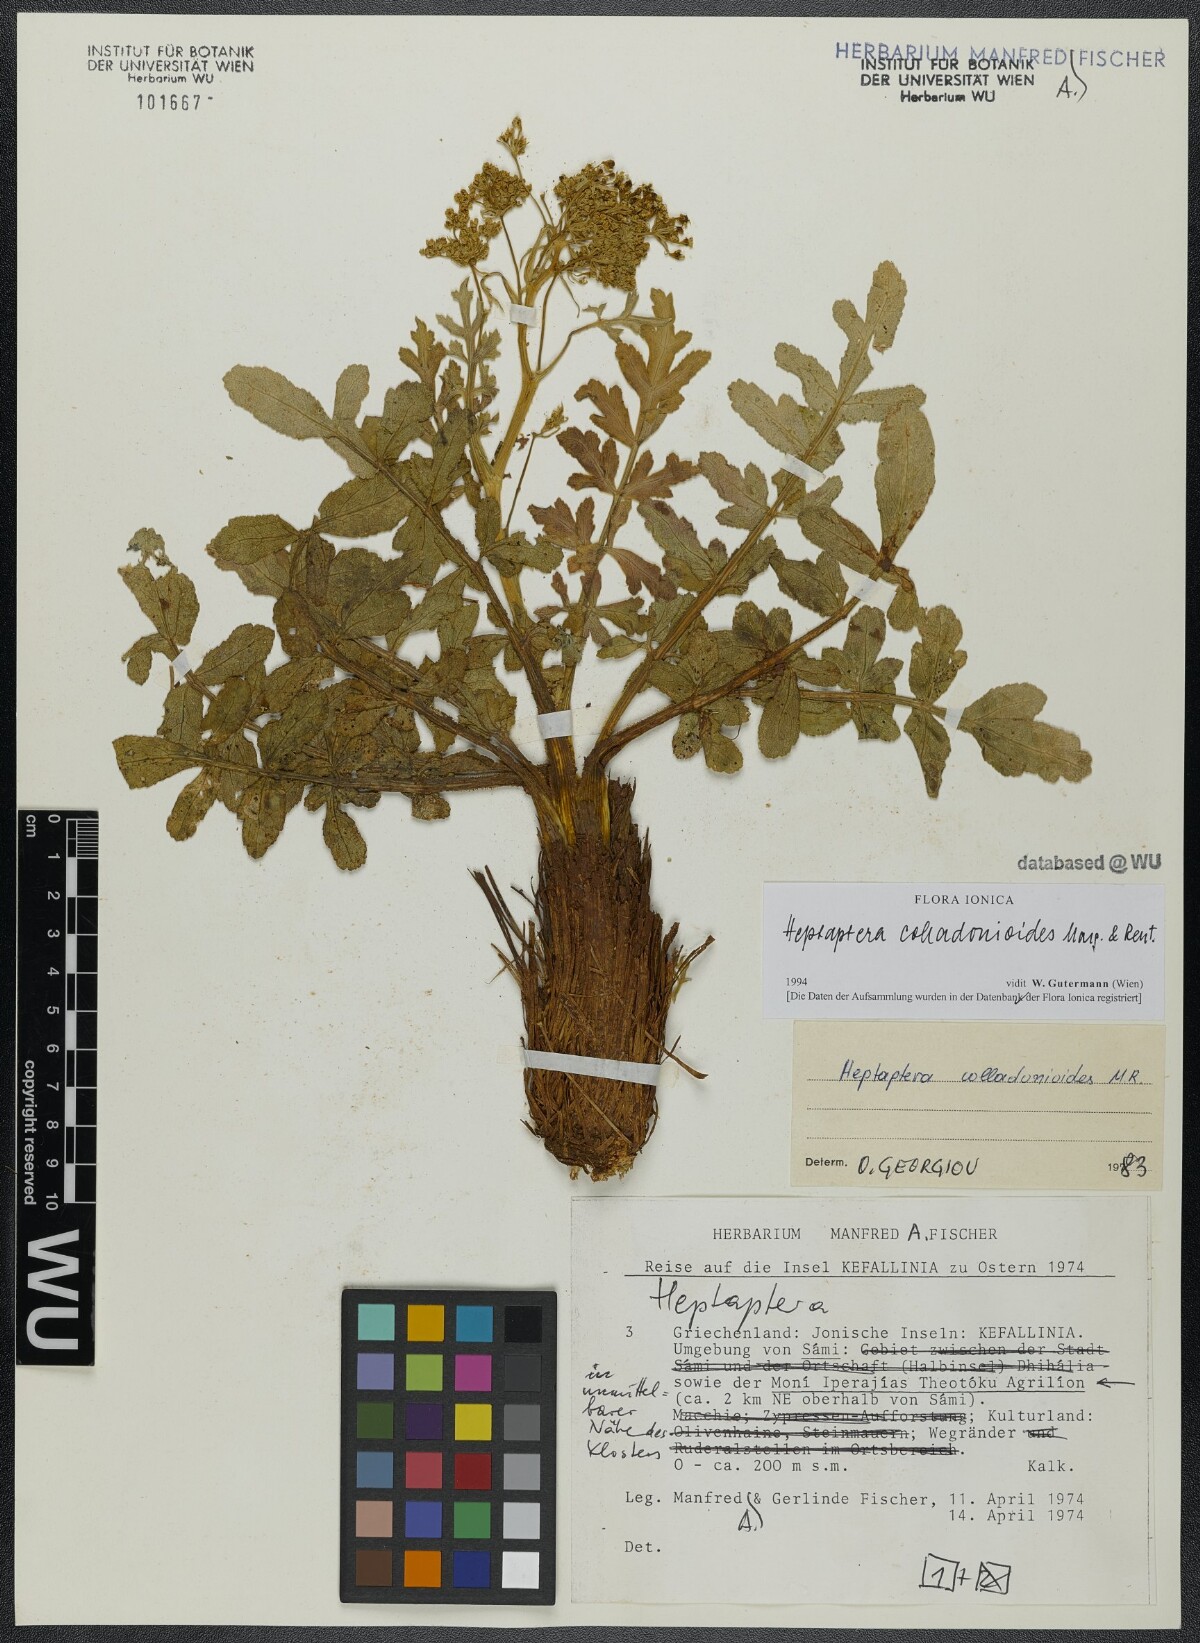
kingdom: Plantae
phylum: Tracheophyta
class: Magnoliopsida
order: Apiales
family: Apiaceae
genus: Heptaptera
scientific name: Heptaptera colladonioides
